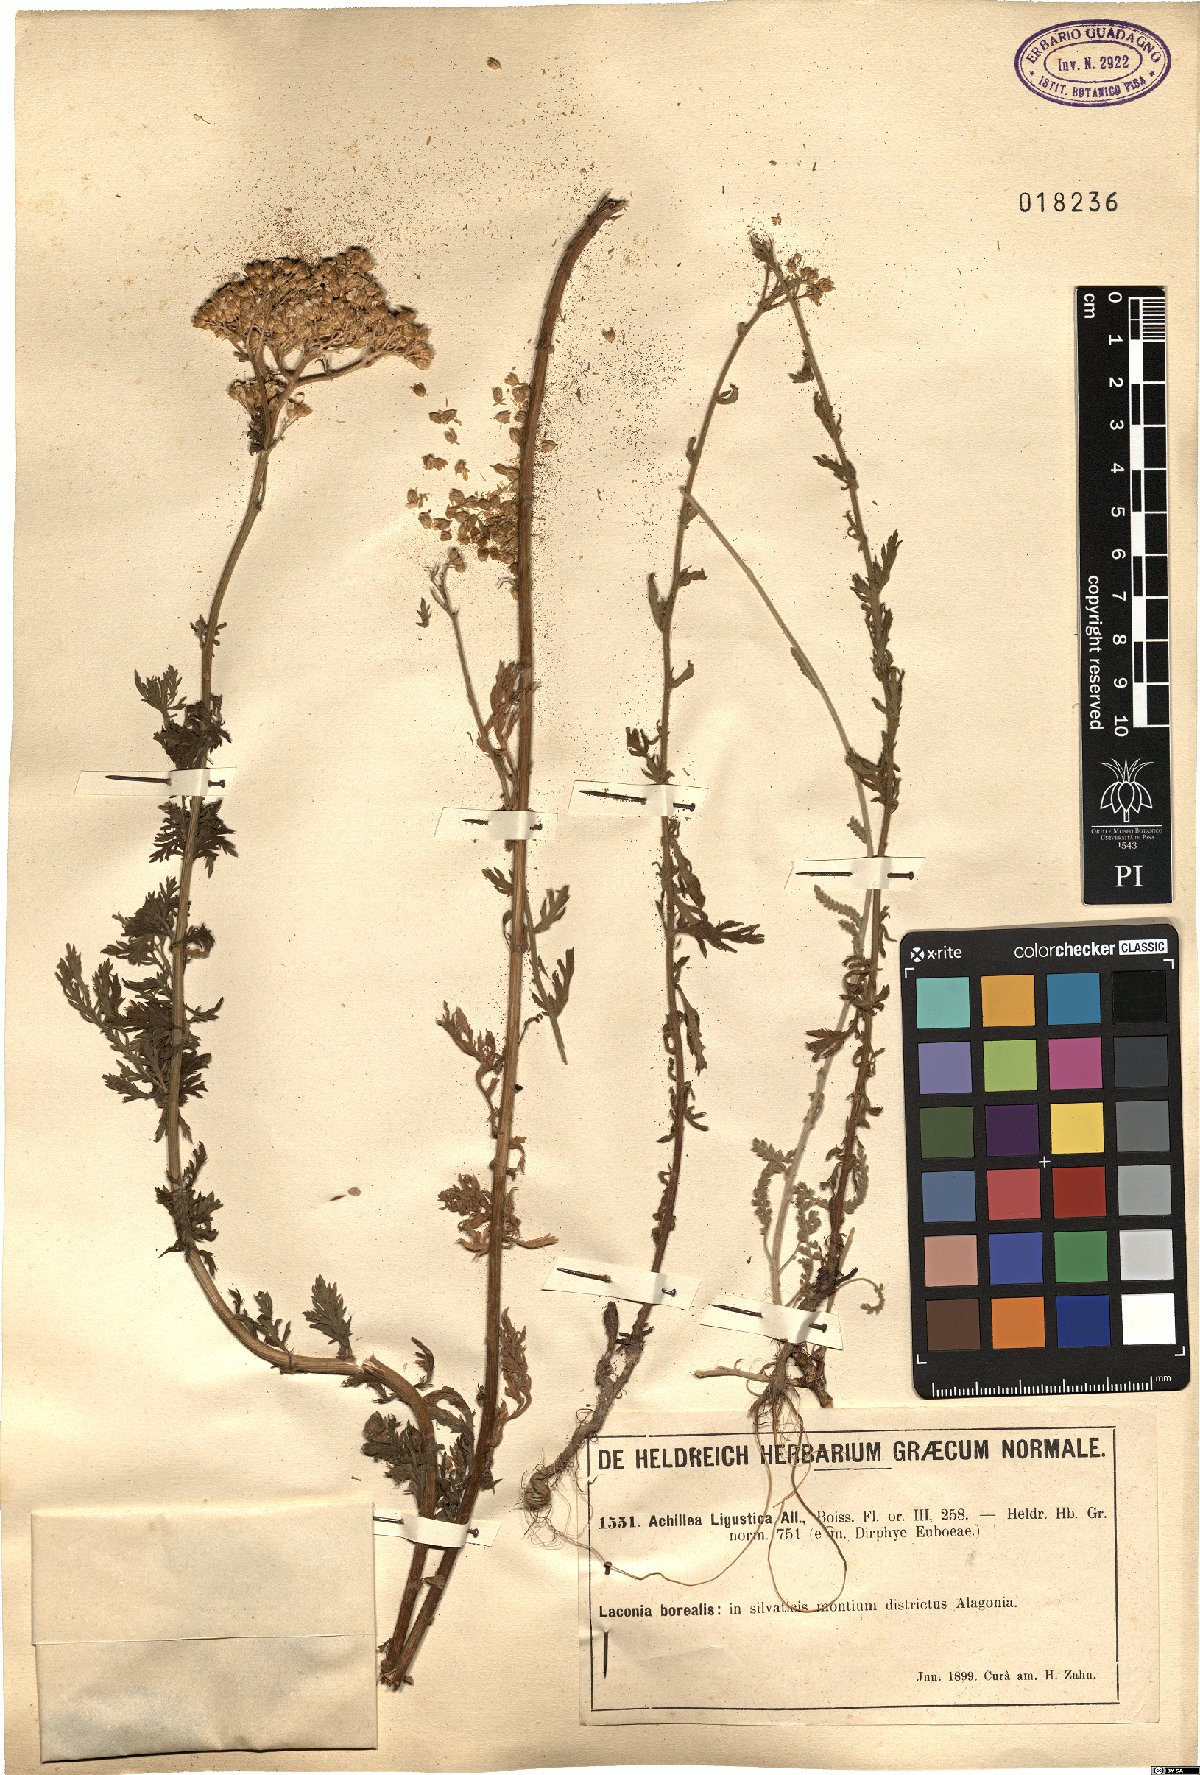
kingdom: Plantae
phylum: Tracheophyta
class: Magnoliopsida
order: Asterales
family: Asteraceae
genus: Achillea
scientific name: Achillea ligustica
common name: Southern yarrow
